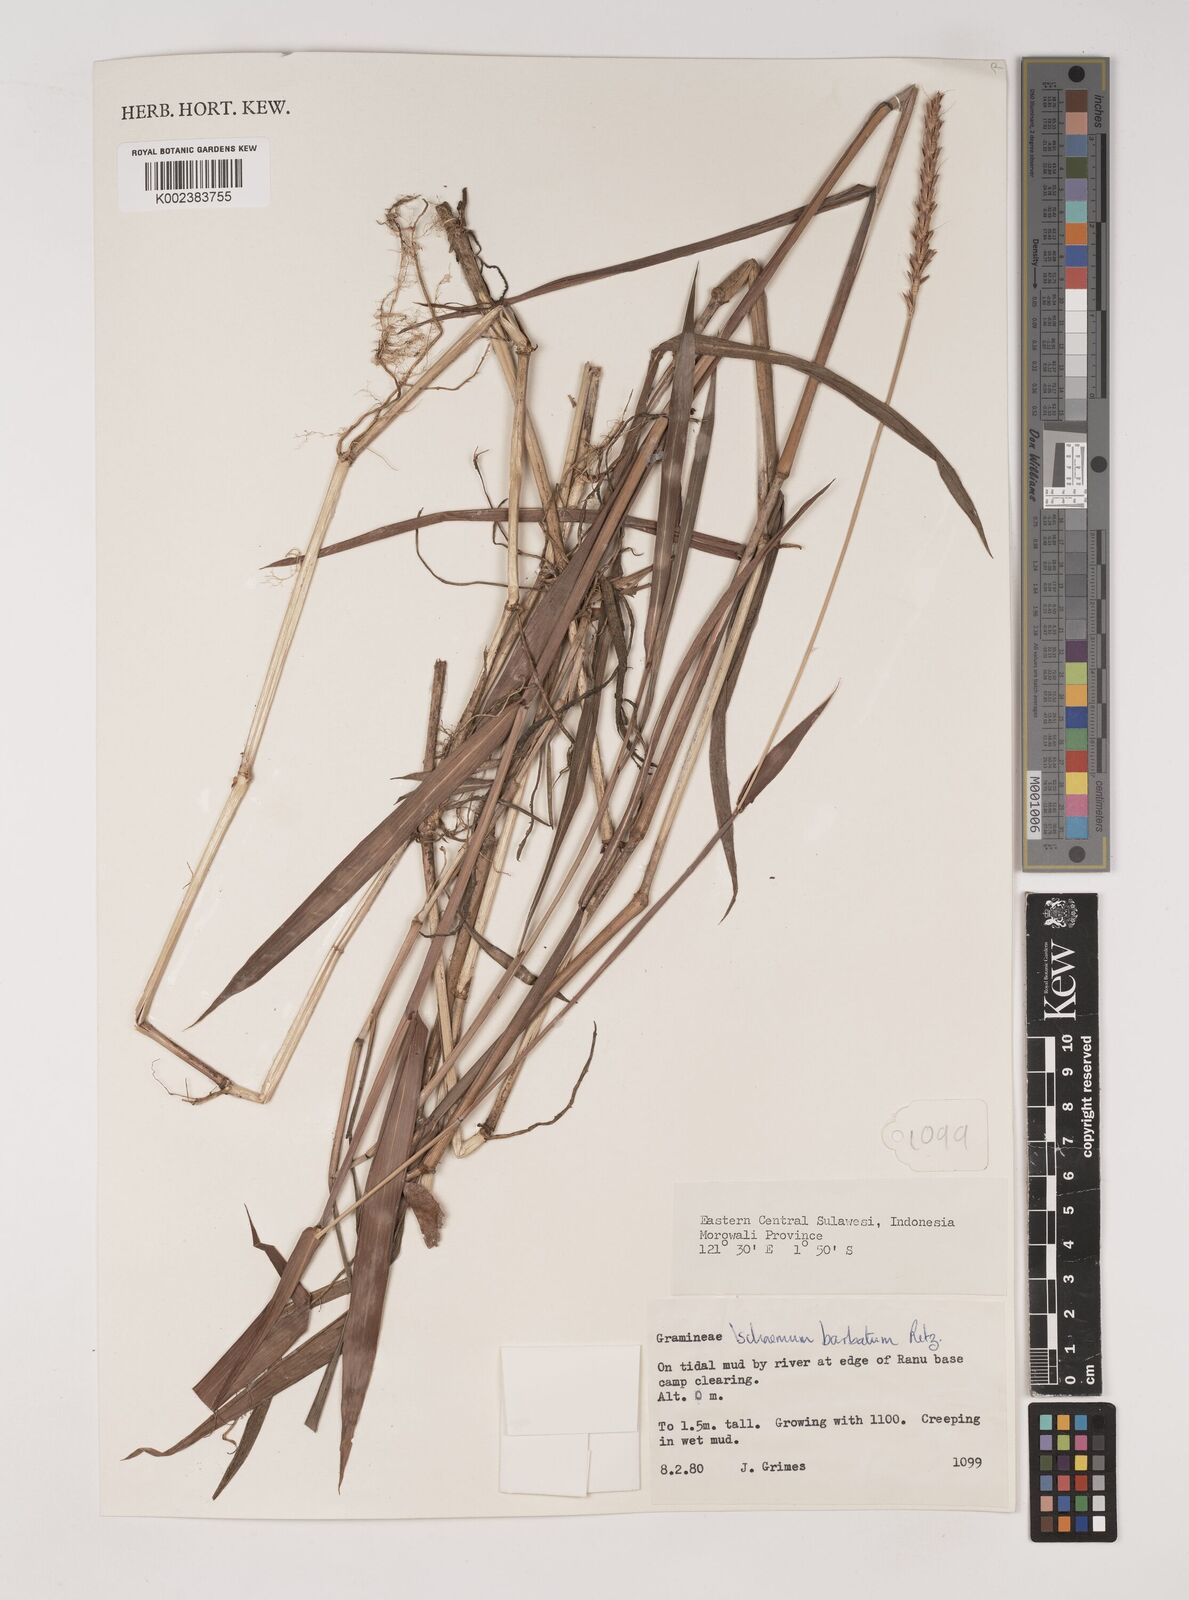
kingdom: Plantae
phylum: Tracheophyta
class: Liliopsida
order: Poales
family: Poaceae
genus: Ischaemum
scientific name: Ischaemum barbatum
